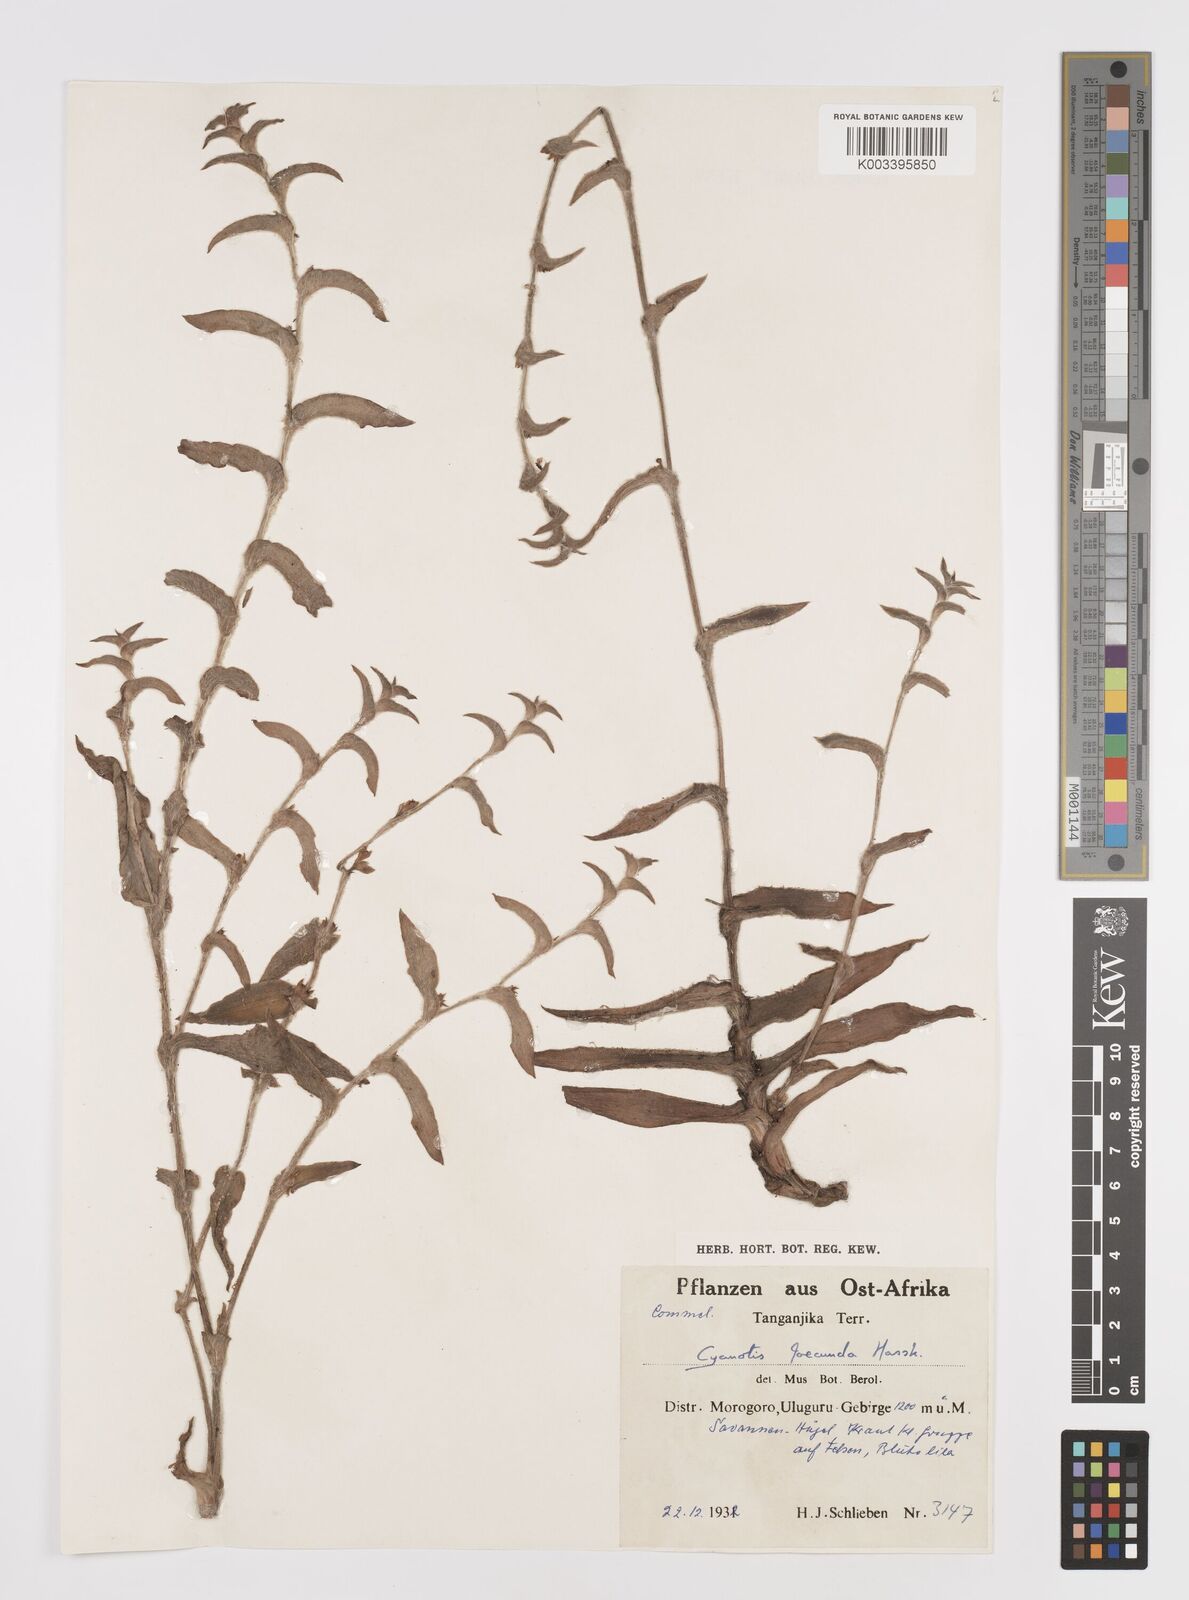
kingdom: Plantae
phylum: Tracheophyta
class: Liliopsida
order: Commelinales
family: Commelinaceae
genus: Cyanotis
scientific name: Cyanotis foecunda
